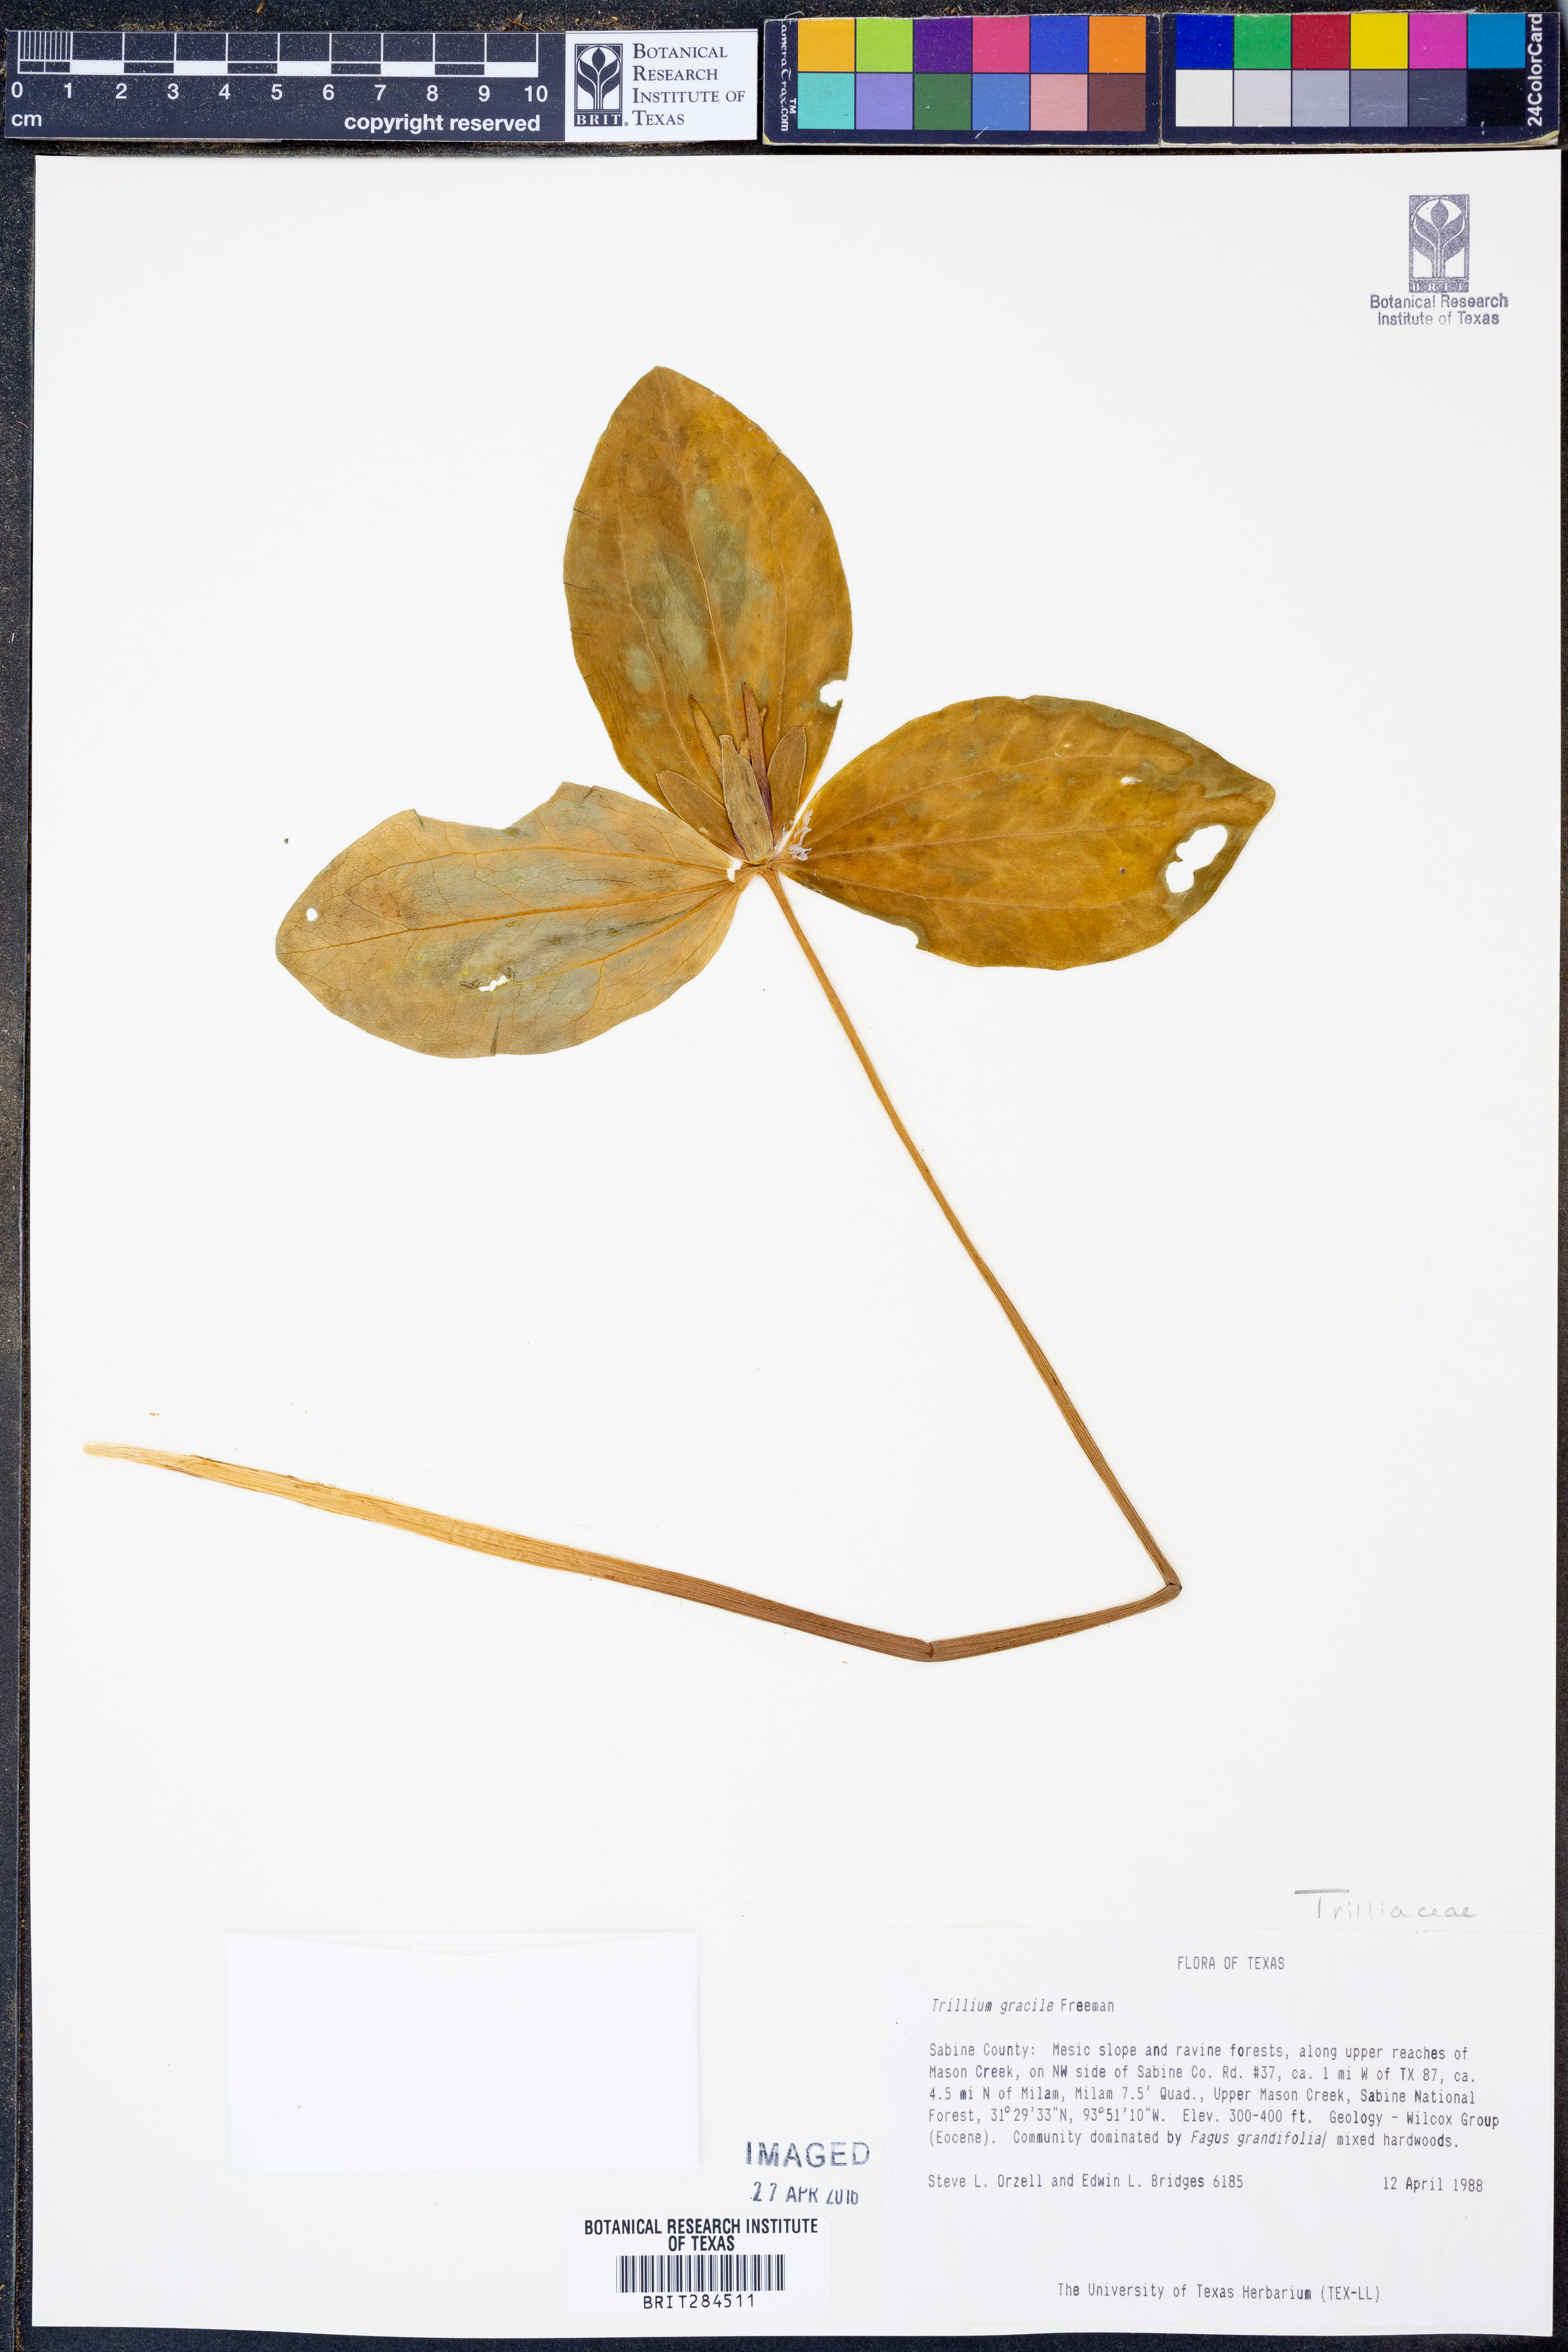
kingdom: Plantae
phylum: Tracheophyta
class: Liliopsida
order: Liliales
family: Melanthiaceae
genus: Trillium
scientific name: Trillium gracile
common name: Graceful trillium
